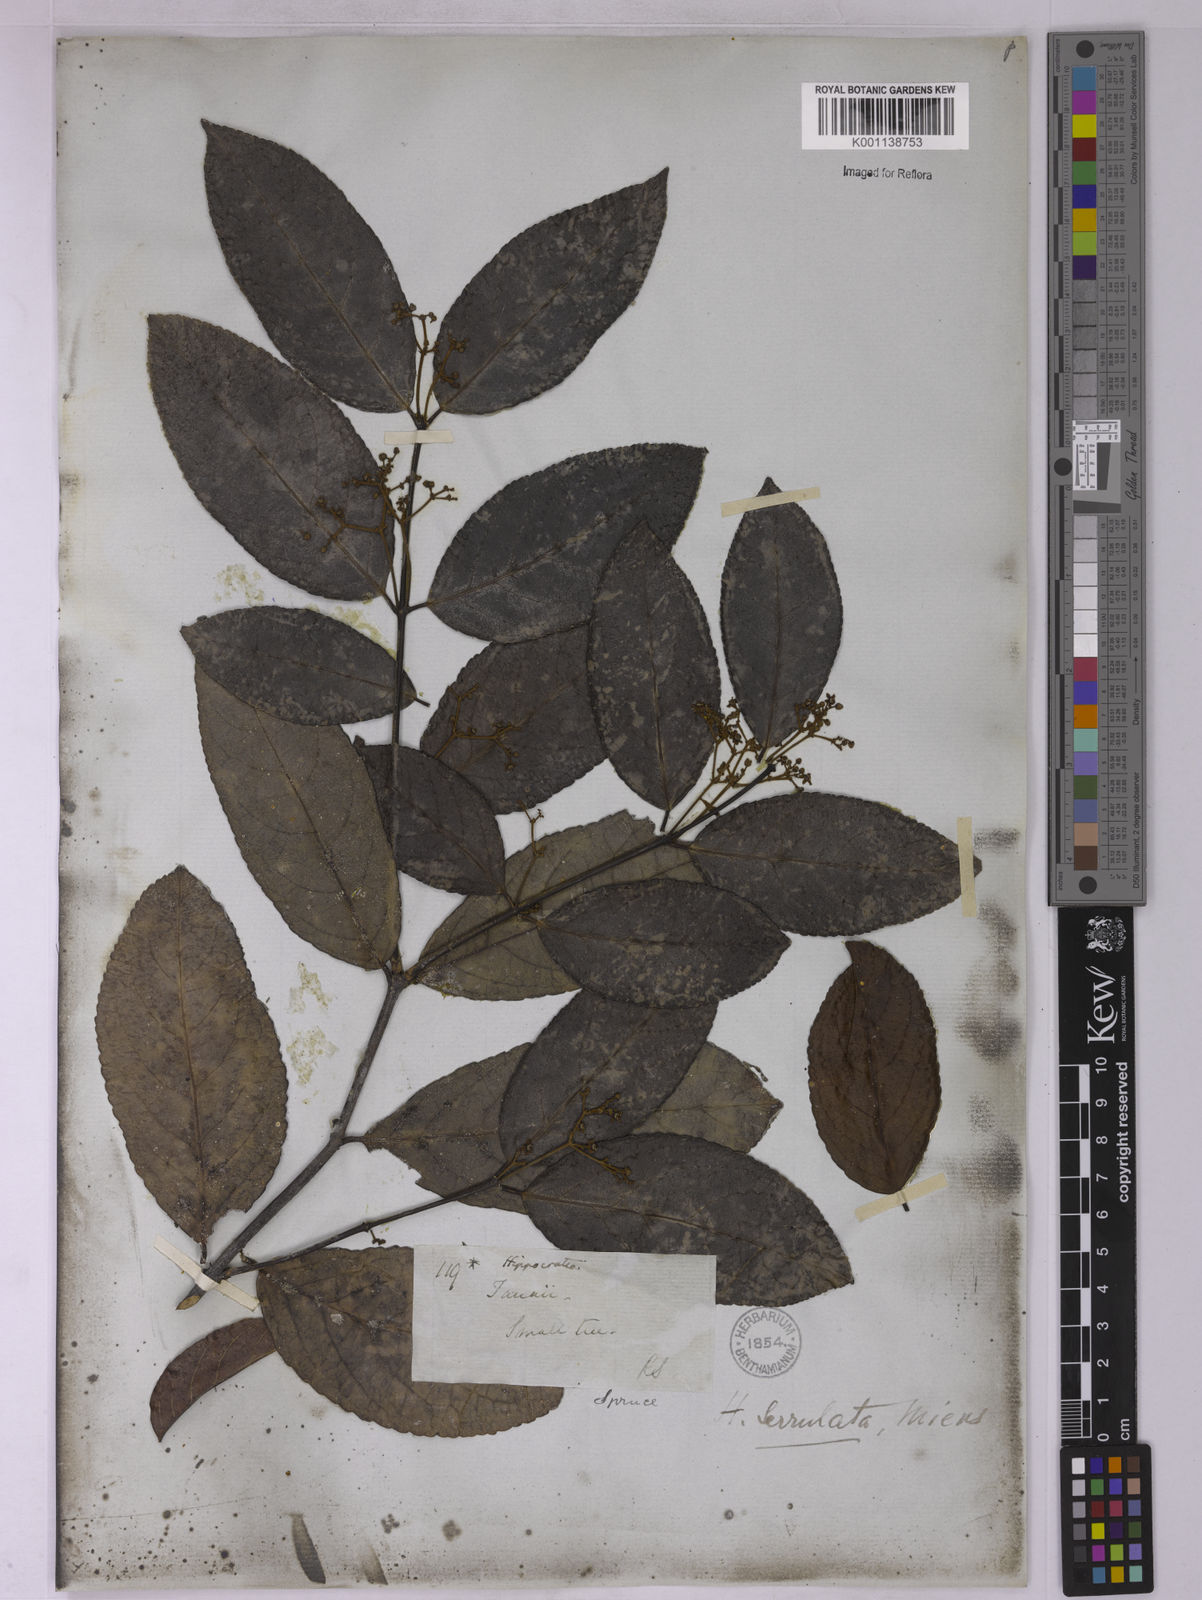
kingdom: Plantae
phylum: Tracheophyta
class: Magnoliopsida
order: Celastrales
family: Celastraceae
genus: Hippocratea
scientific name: Hippocratea volubilis
